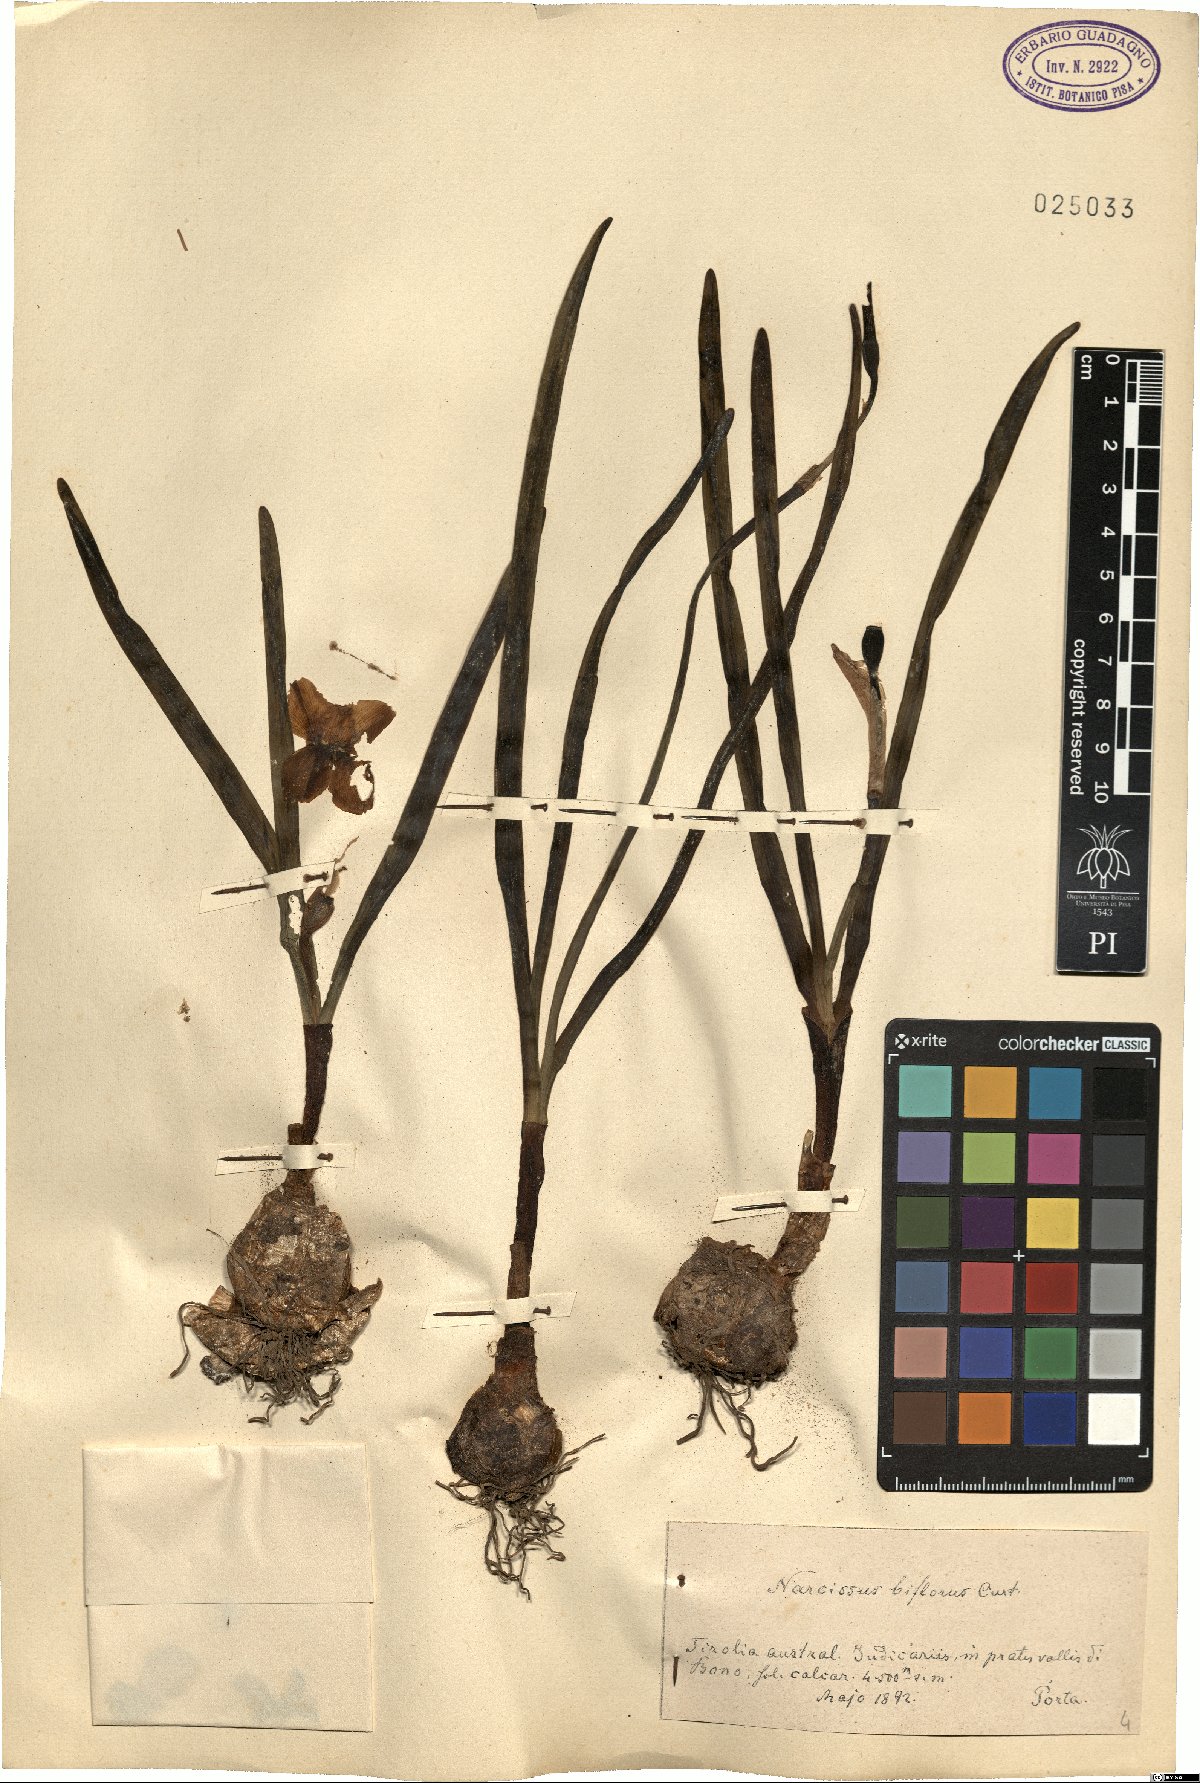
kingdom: Plantae
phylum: Tracheophyta
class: Liliopsida
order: Asparagales
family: Amaryllidaceae
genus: Narcissus
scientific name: Narcissus medioluteus
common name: Primrose-peerless
